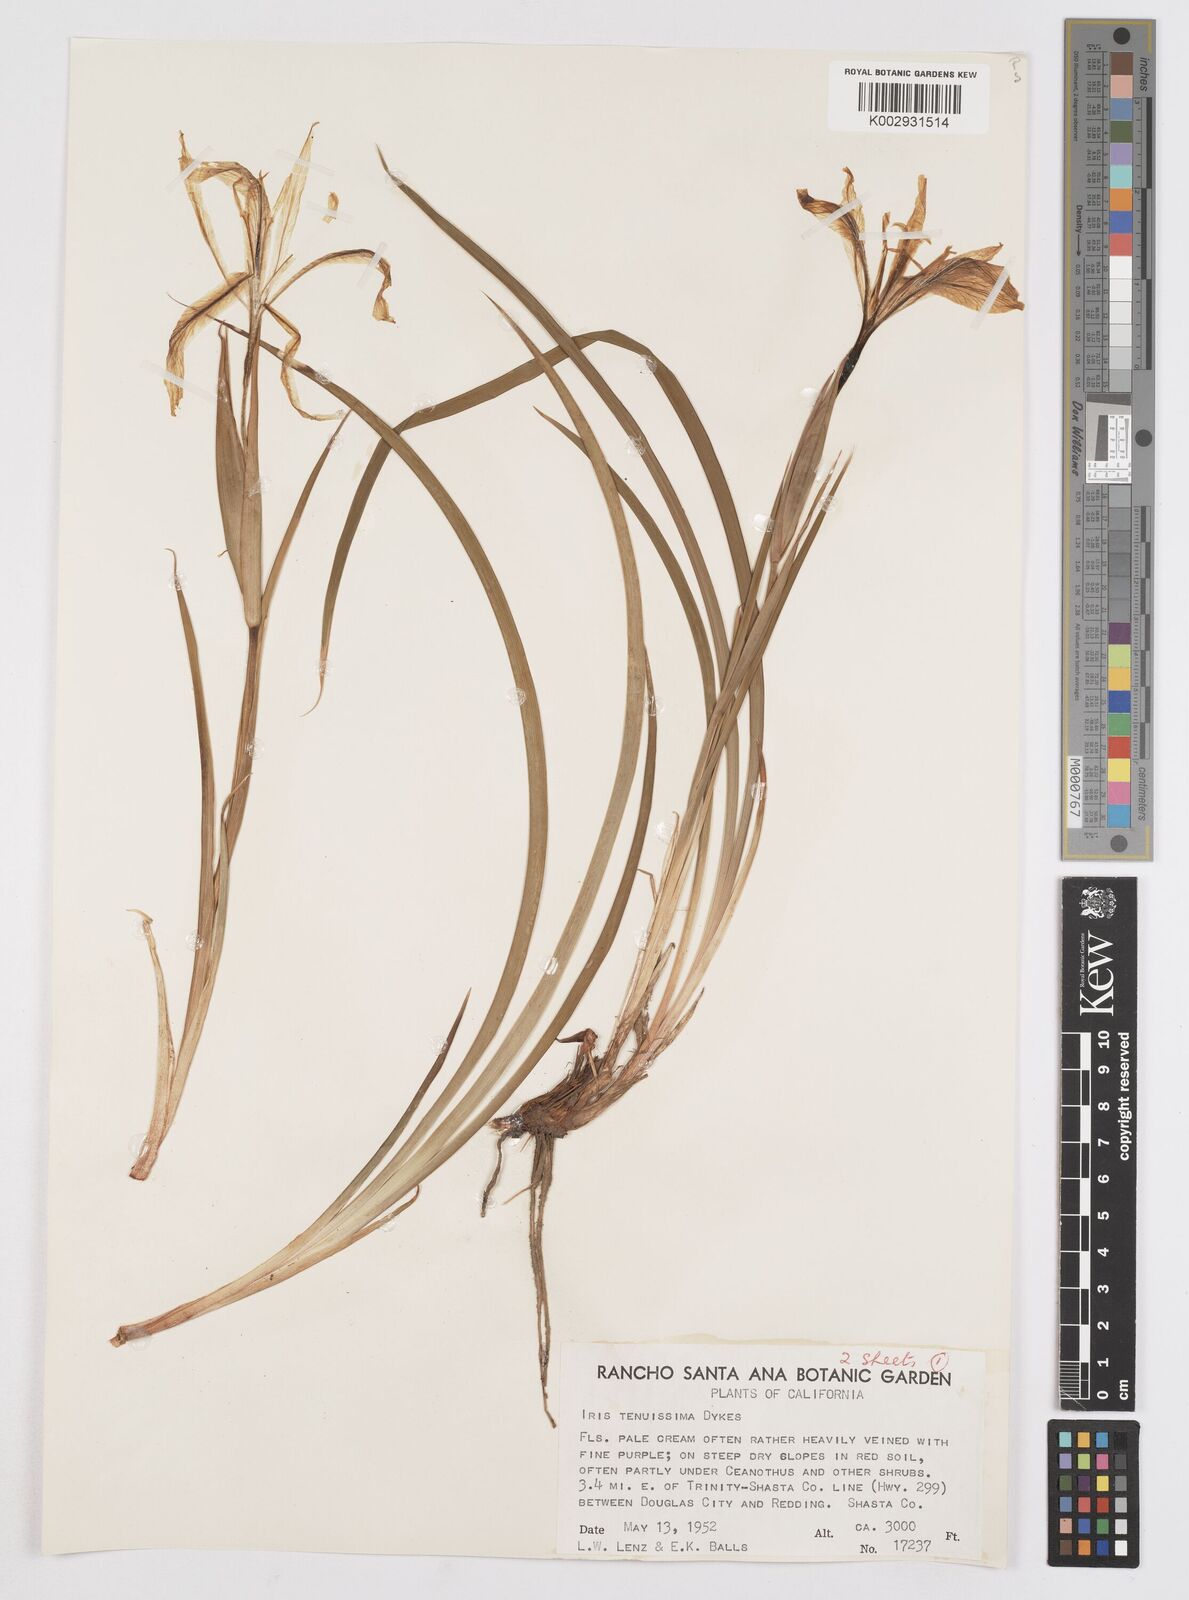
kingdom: Plantae
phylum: Tracheophyta
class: Liliopsida
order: Asparagales
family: Iridaceae
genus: Iris
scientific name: Iris tenuissima
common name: Long-tube iris
